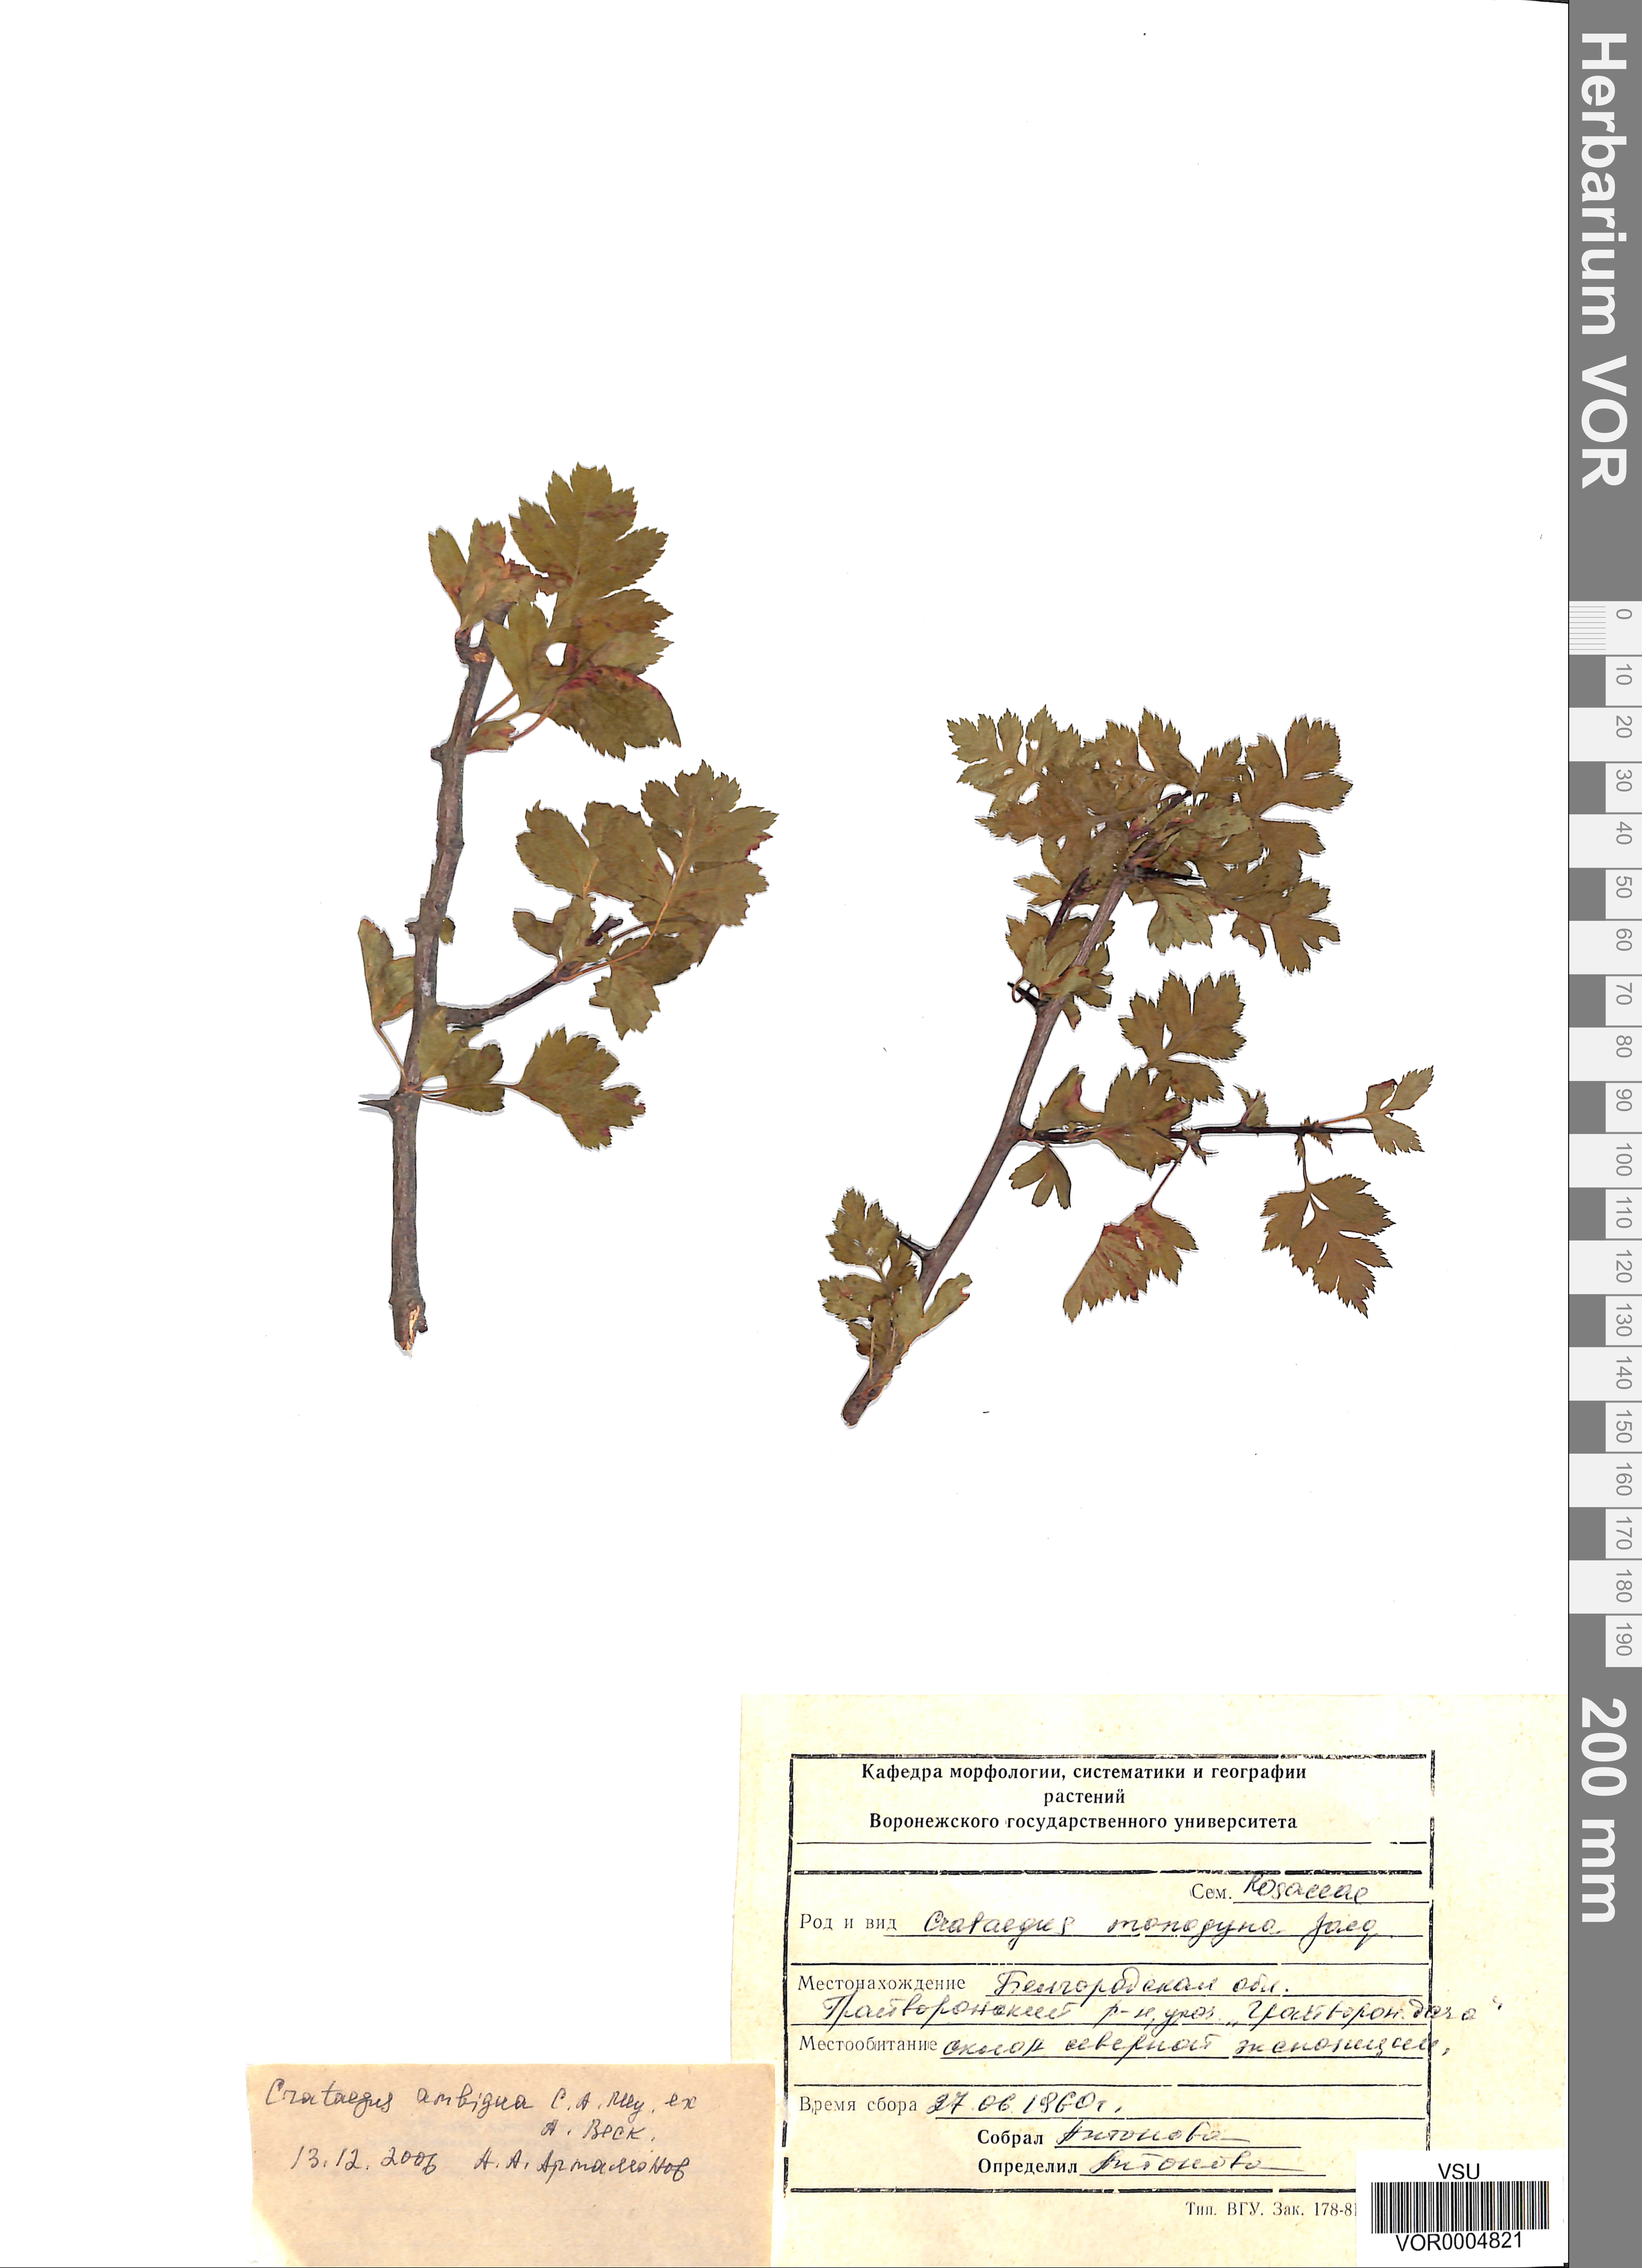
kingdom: Plantae
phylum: Tracheophyta
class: Magnoliopsida
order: Rosales
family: Rosaceae
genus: Crataegus
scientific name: Crataegus ambigua
